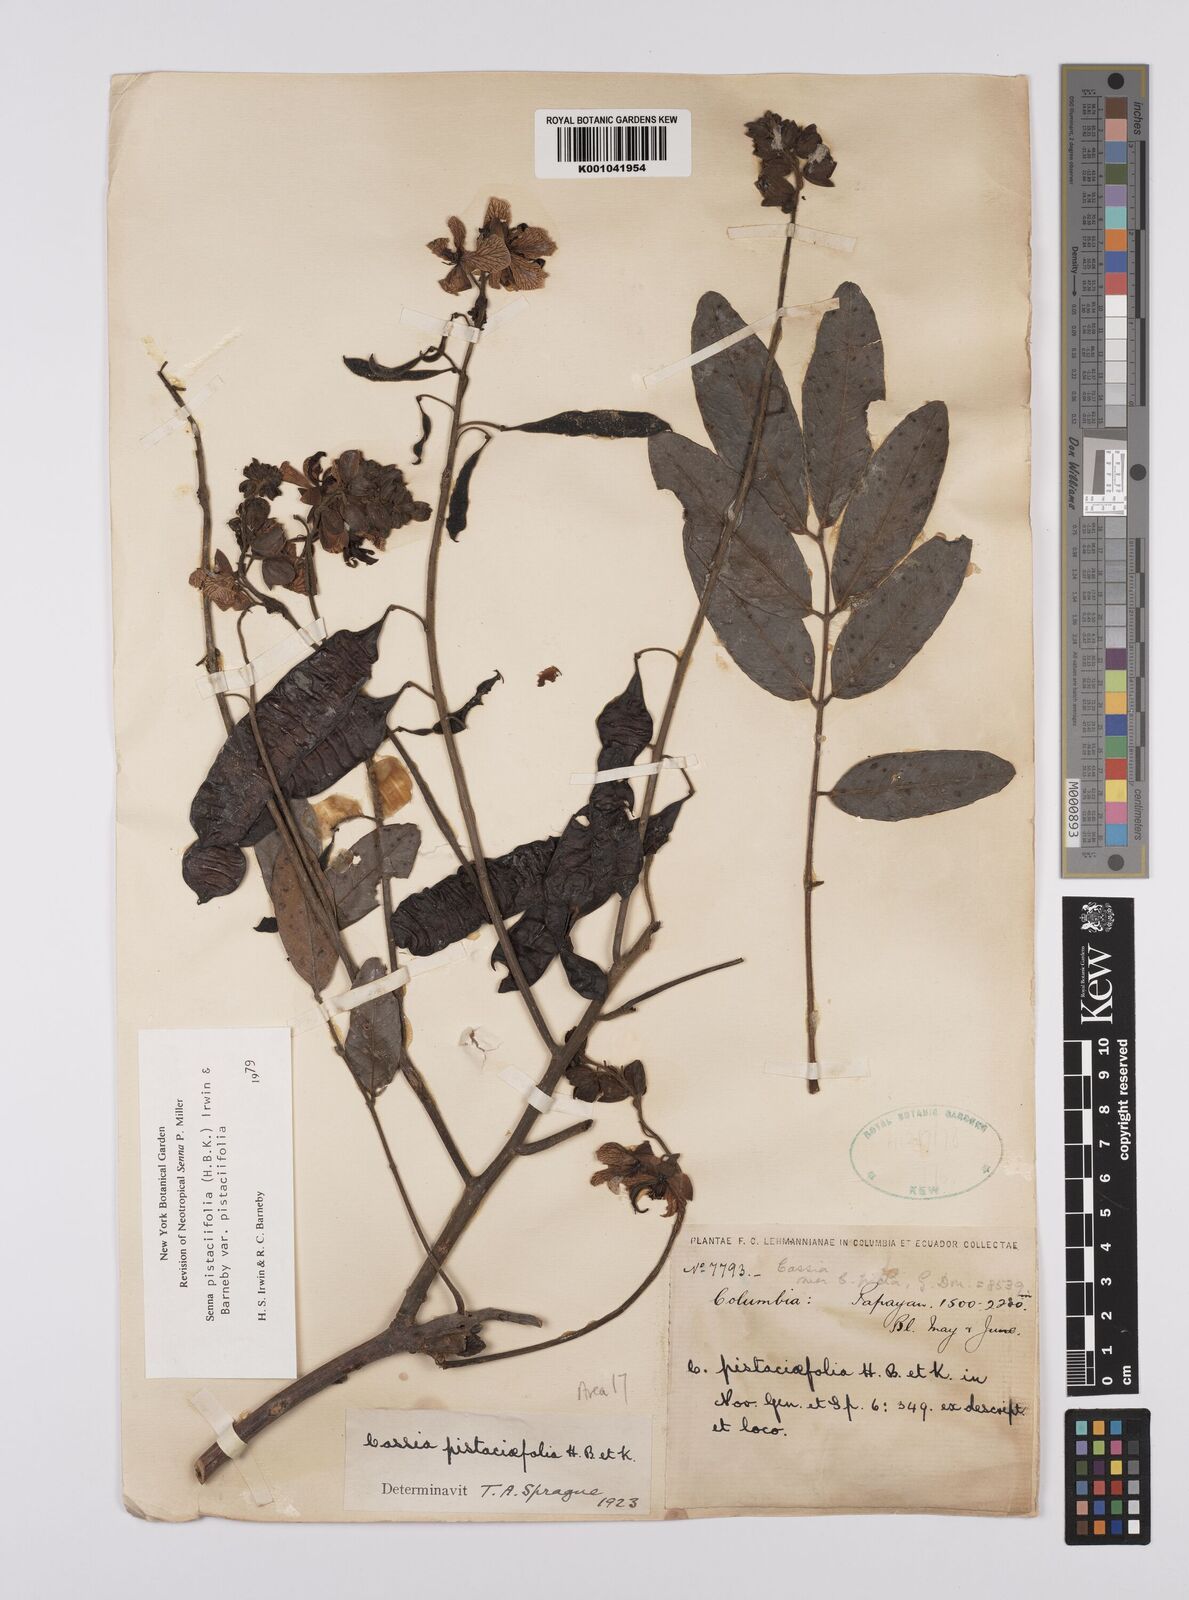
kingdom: Plantae
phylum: Tracheophyta
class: Magnoliopsida
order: Fabales
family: Fabaceae
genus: Senna
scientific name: Senna pistaciifolia
